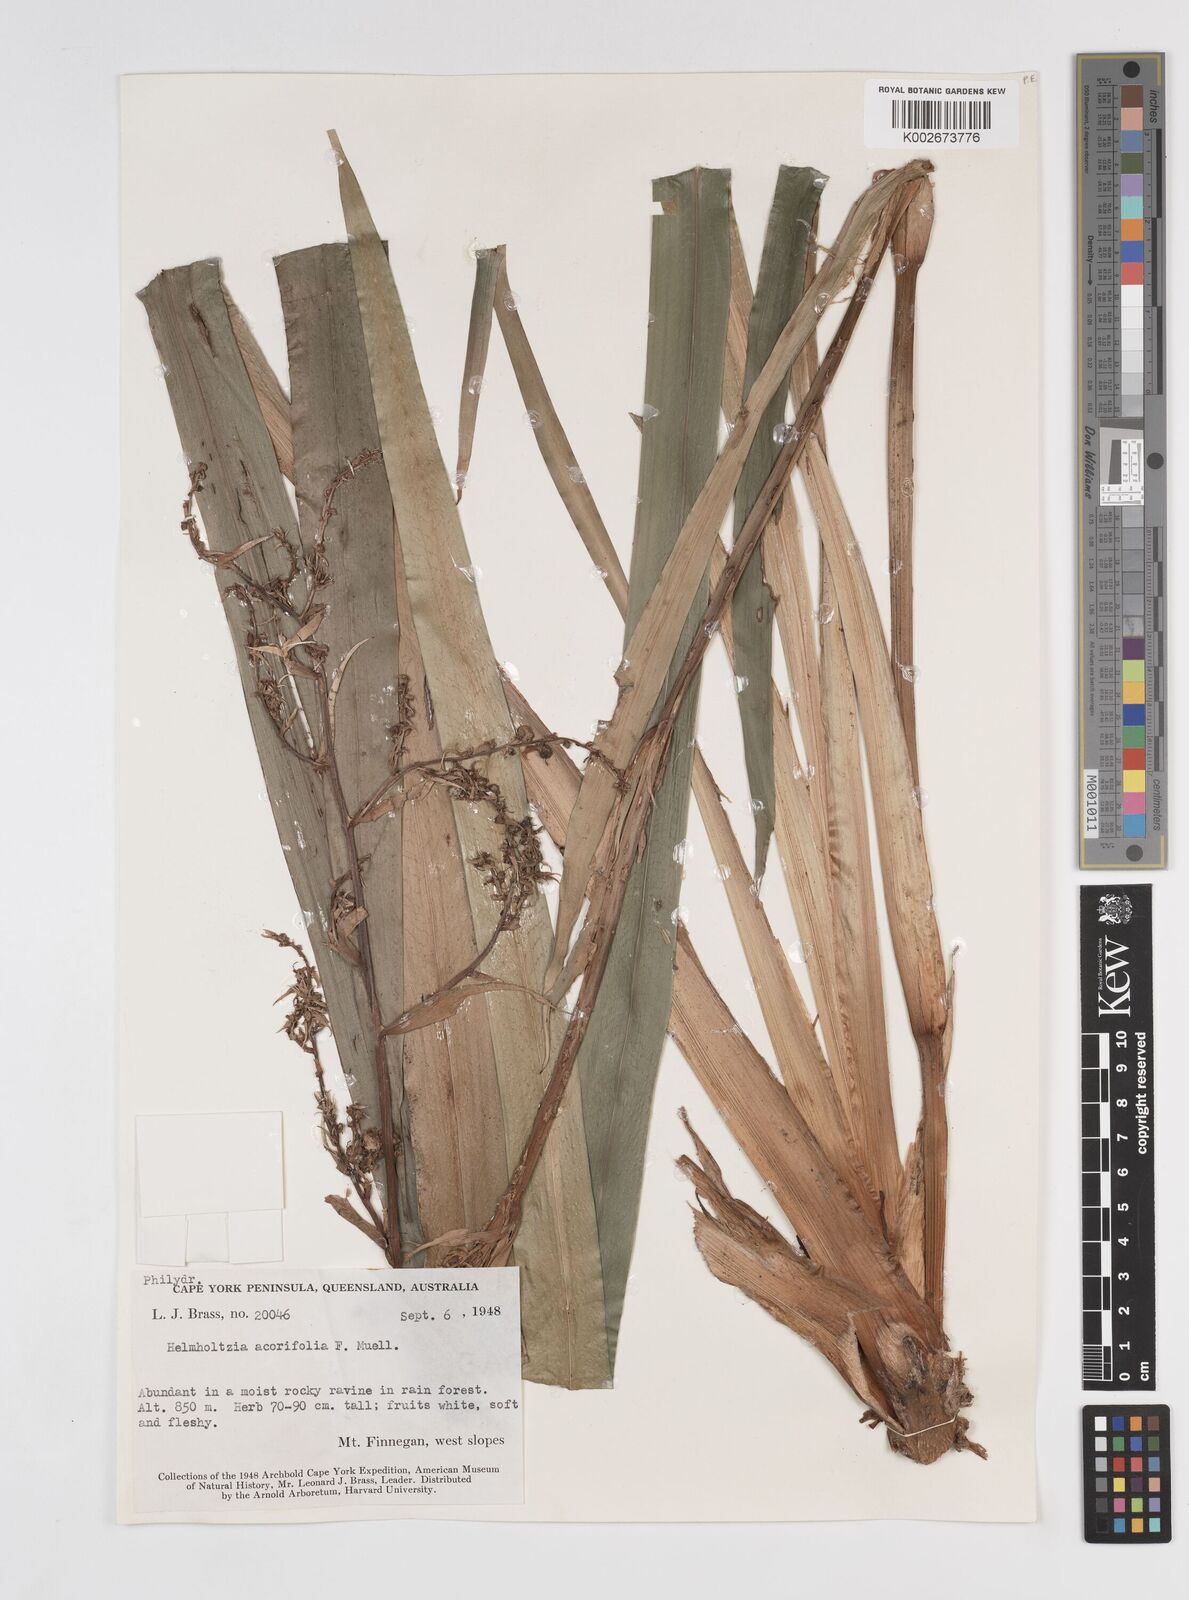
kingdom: Plantae
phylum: Tracheophyta
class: Liliopsida
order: Commelinales
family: Philydraceae
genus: Helmholtzia
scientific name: Helmholtzia acorifolia
